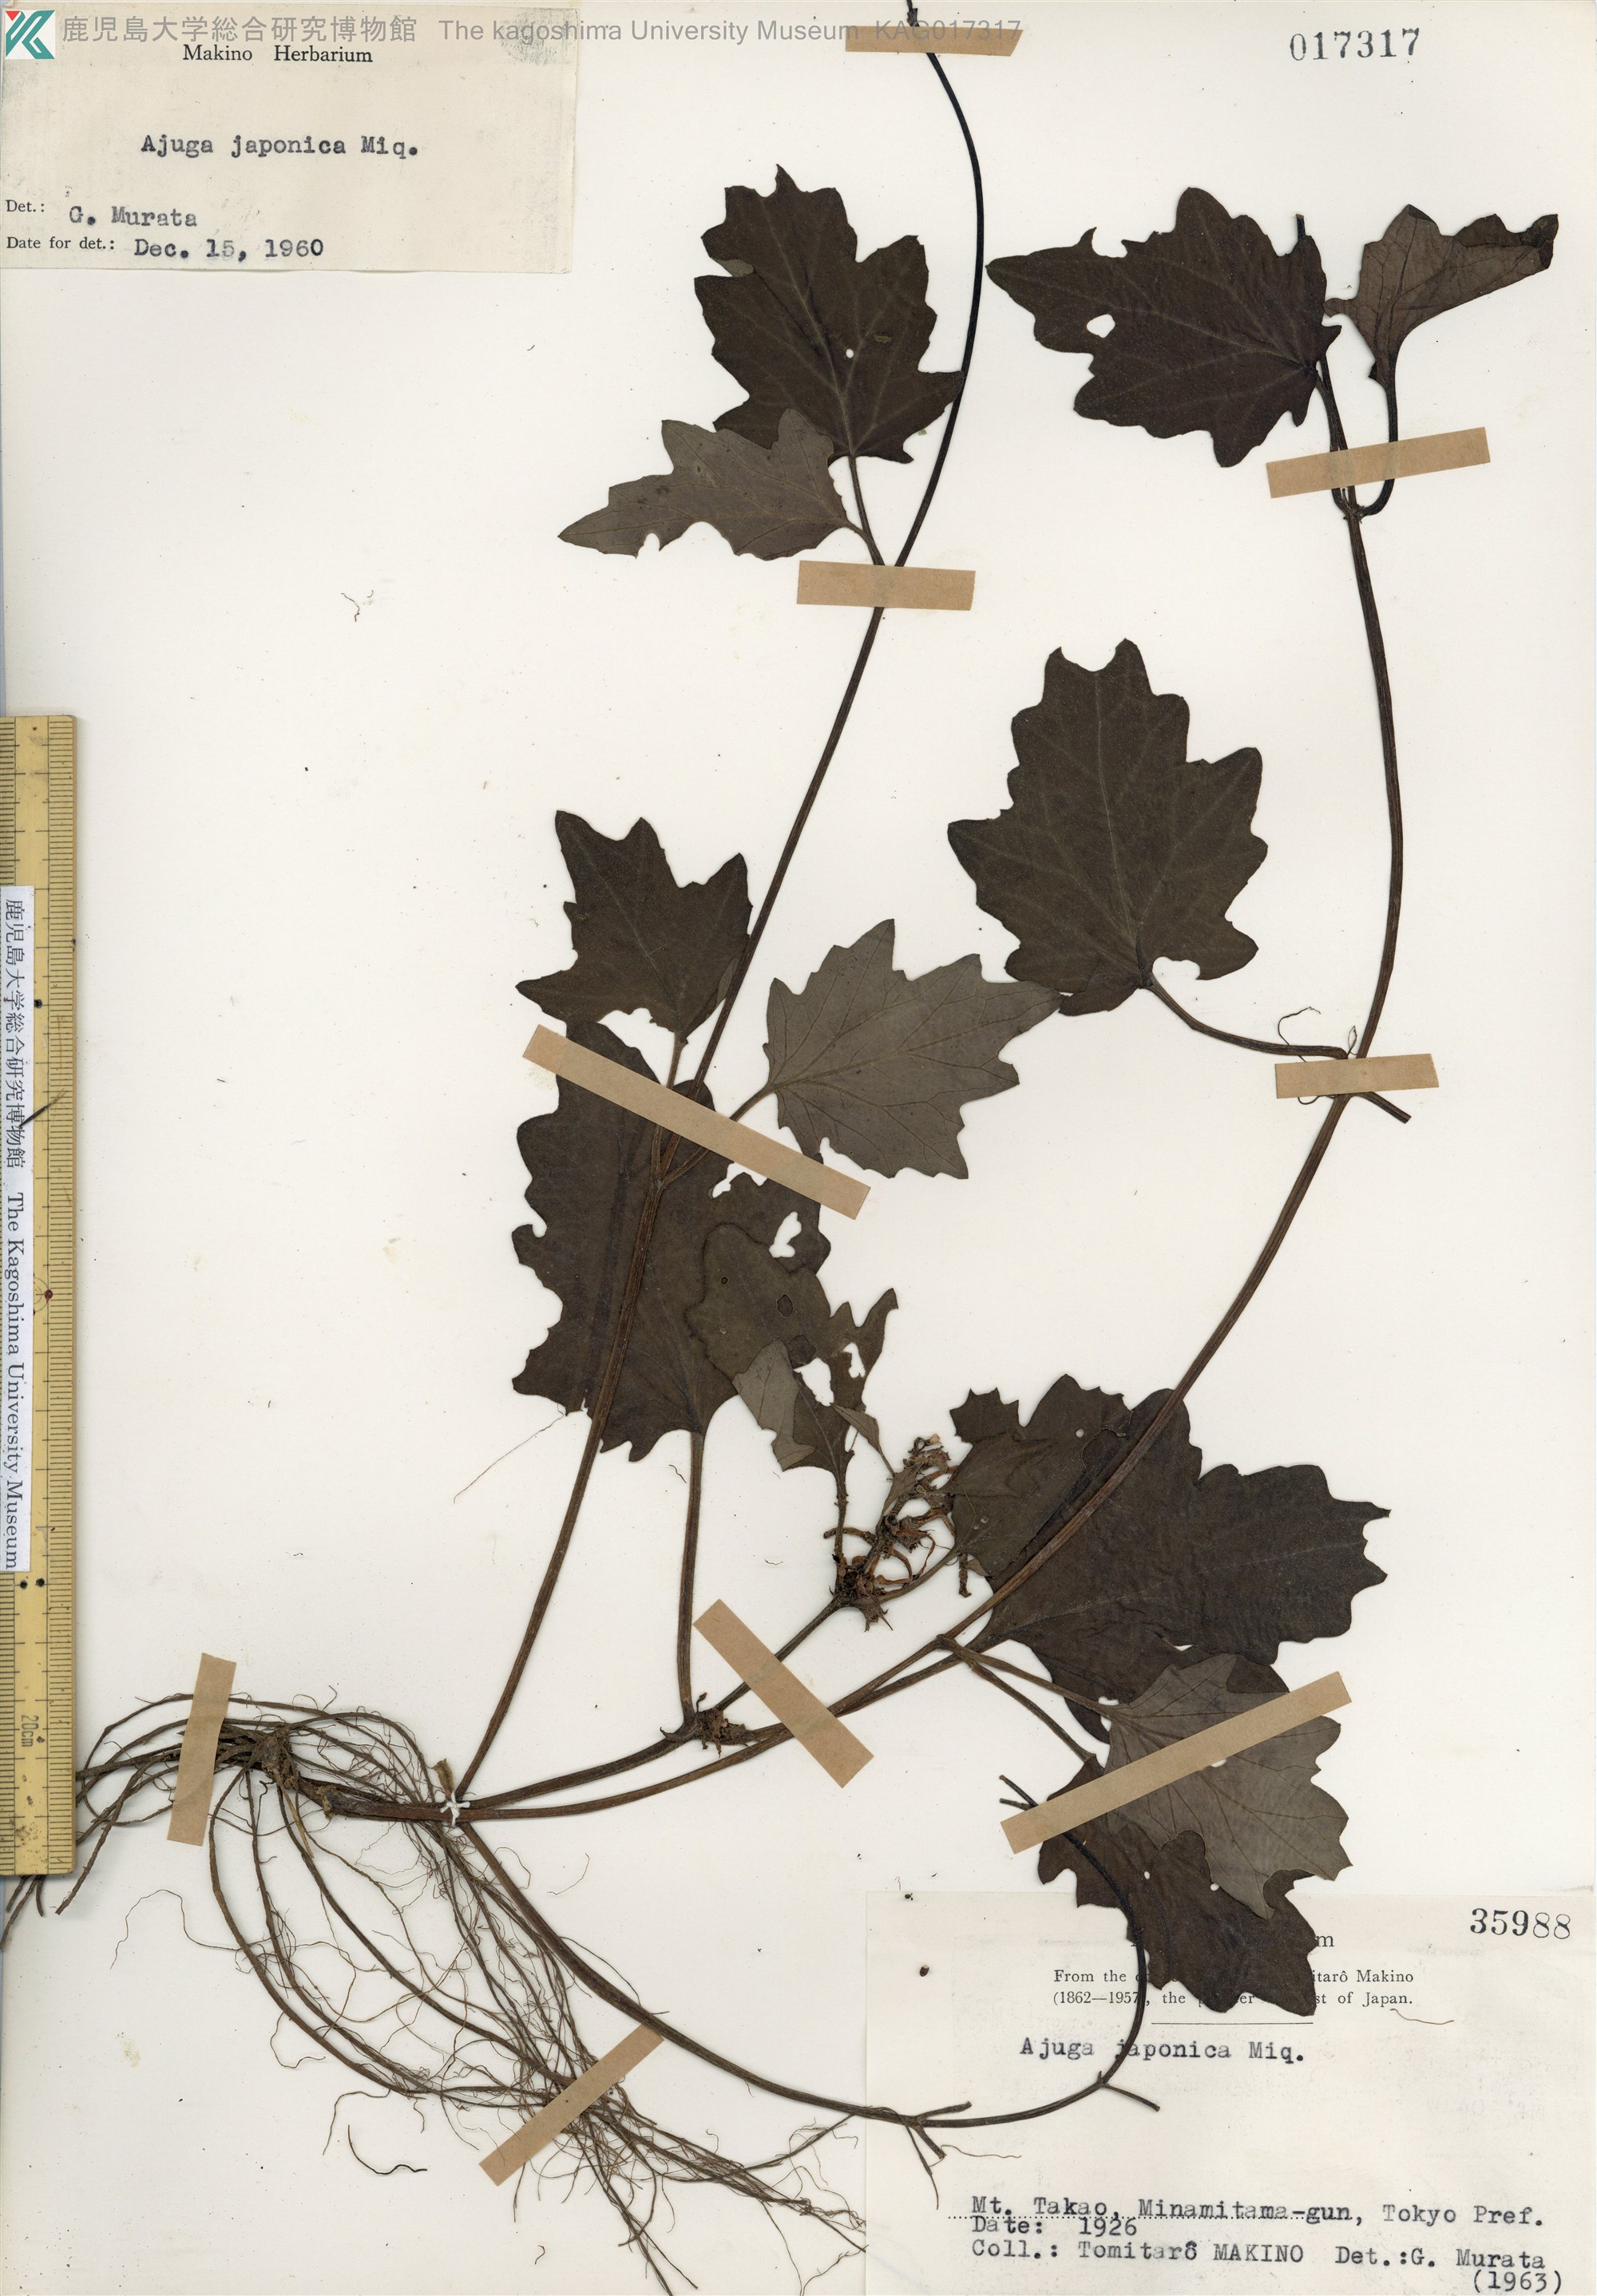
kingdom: Plantae
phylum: Tracheophyta
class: Magnoliopsida
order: Lamiales
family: Lamiaceae
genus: Ajuga
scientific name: Ajuga japonica
